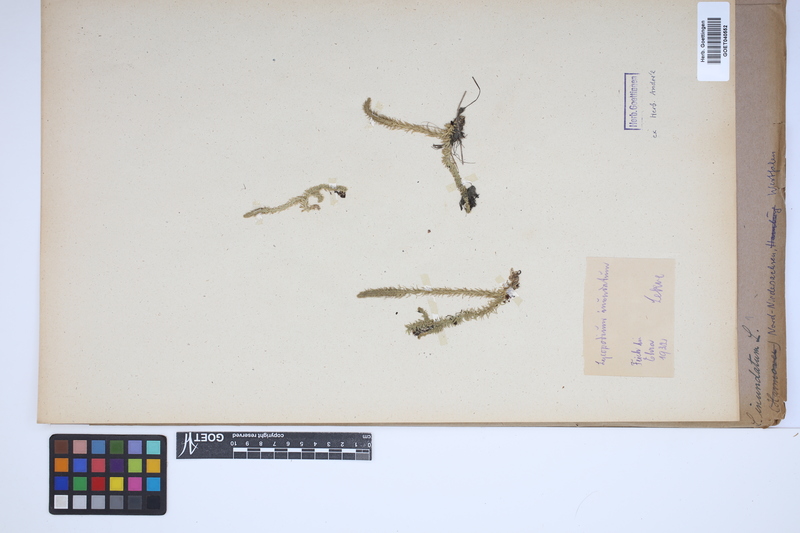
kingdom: Plantae
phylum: Tracheophyta
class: Lycopodiopsida
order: Lycopodiales
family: Lycopodiaceae
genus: Lycopodiella
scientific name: Lycopodiella inundata
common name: Marsh clubmoss
